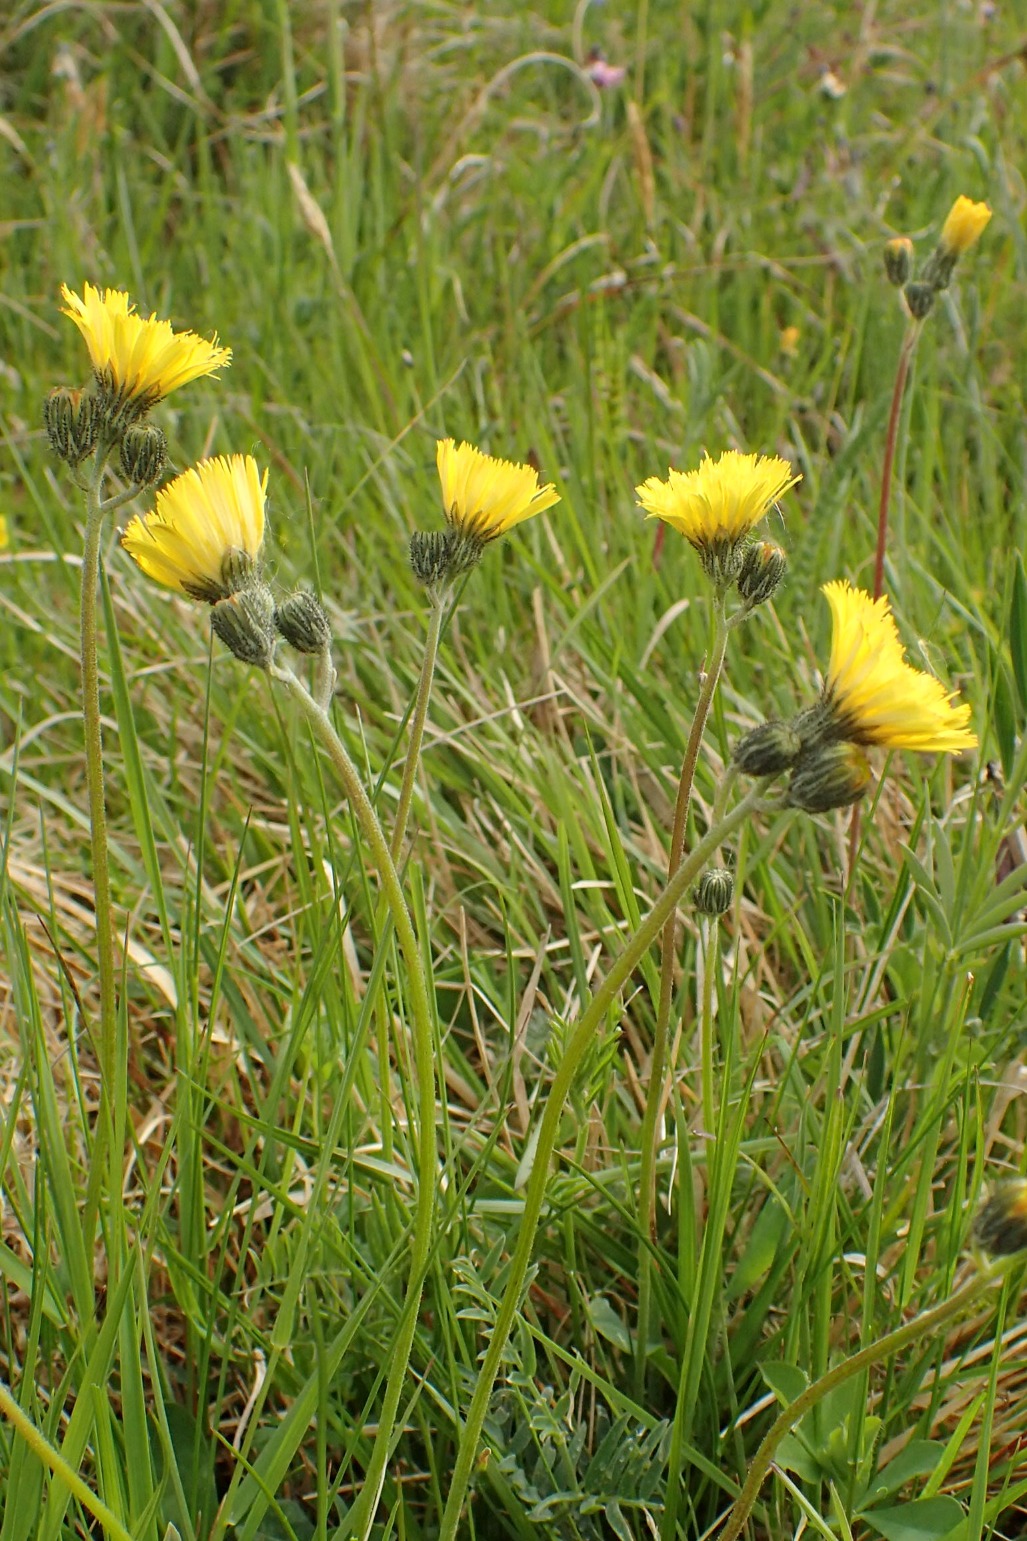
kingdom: Plantae
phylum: Tracheophyta
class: Magnoliopsida
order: Asterales
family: Asteraceae
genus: Pilosella
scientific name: Pilosella lactucella
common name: Lancetbladet høgeurt
